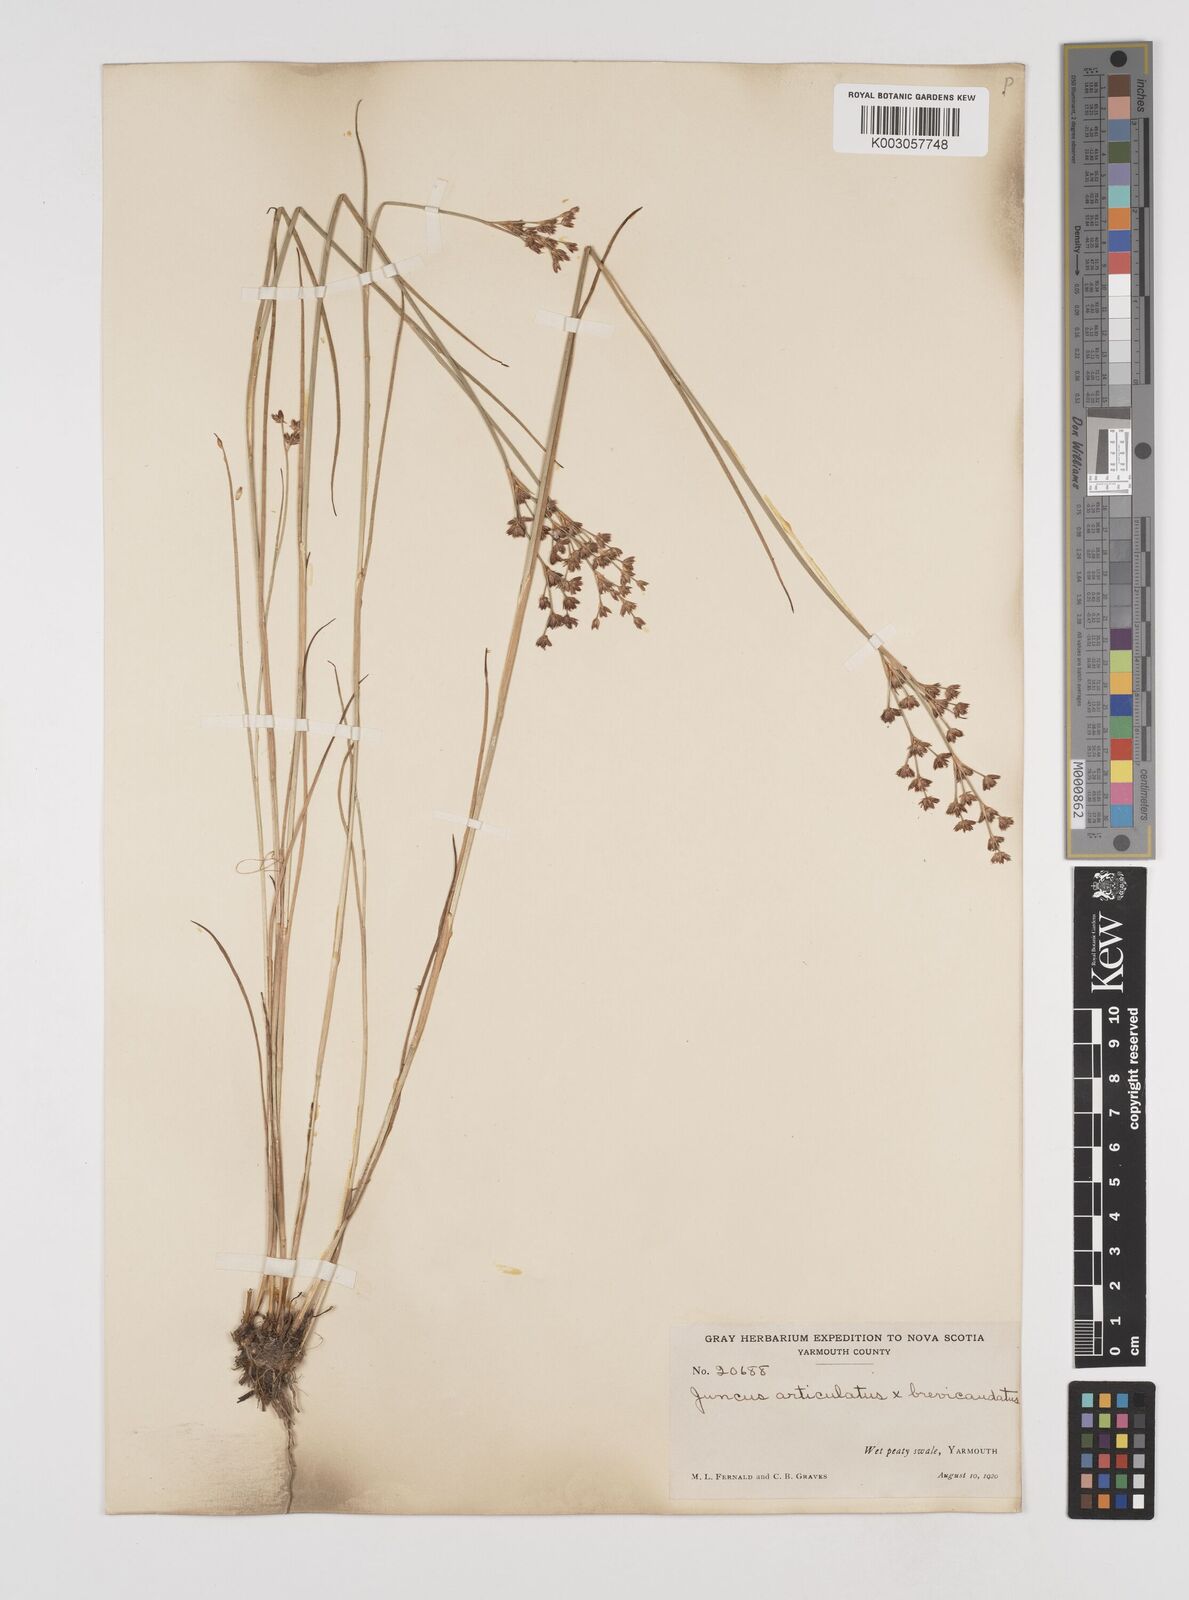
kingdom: Plantae
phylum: Tracheophyta
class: Liliopsida
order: Poales
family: Juncaceae
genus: Juncus
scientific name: Juncus articulatus
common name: Jointed rush
